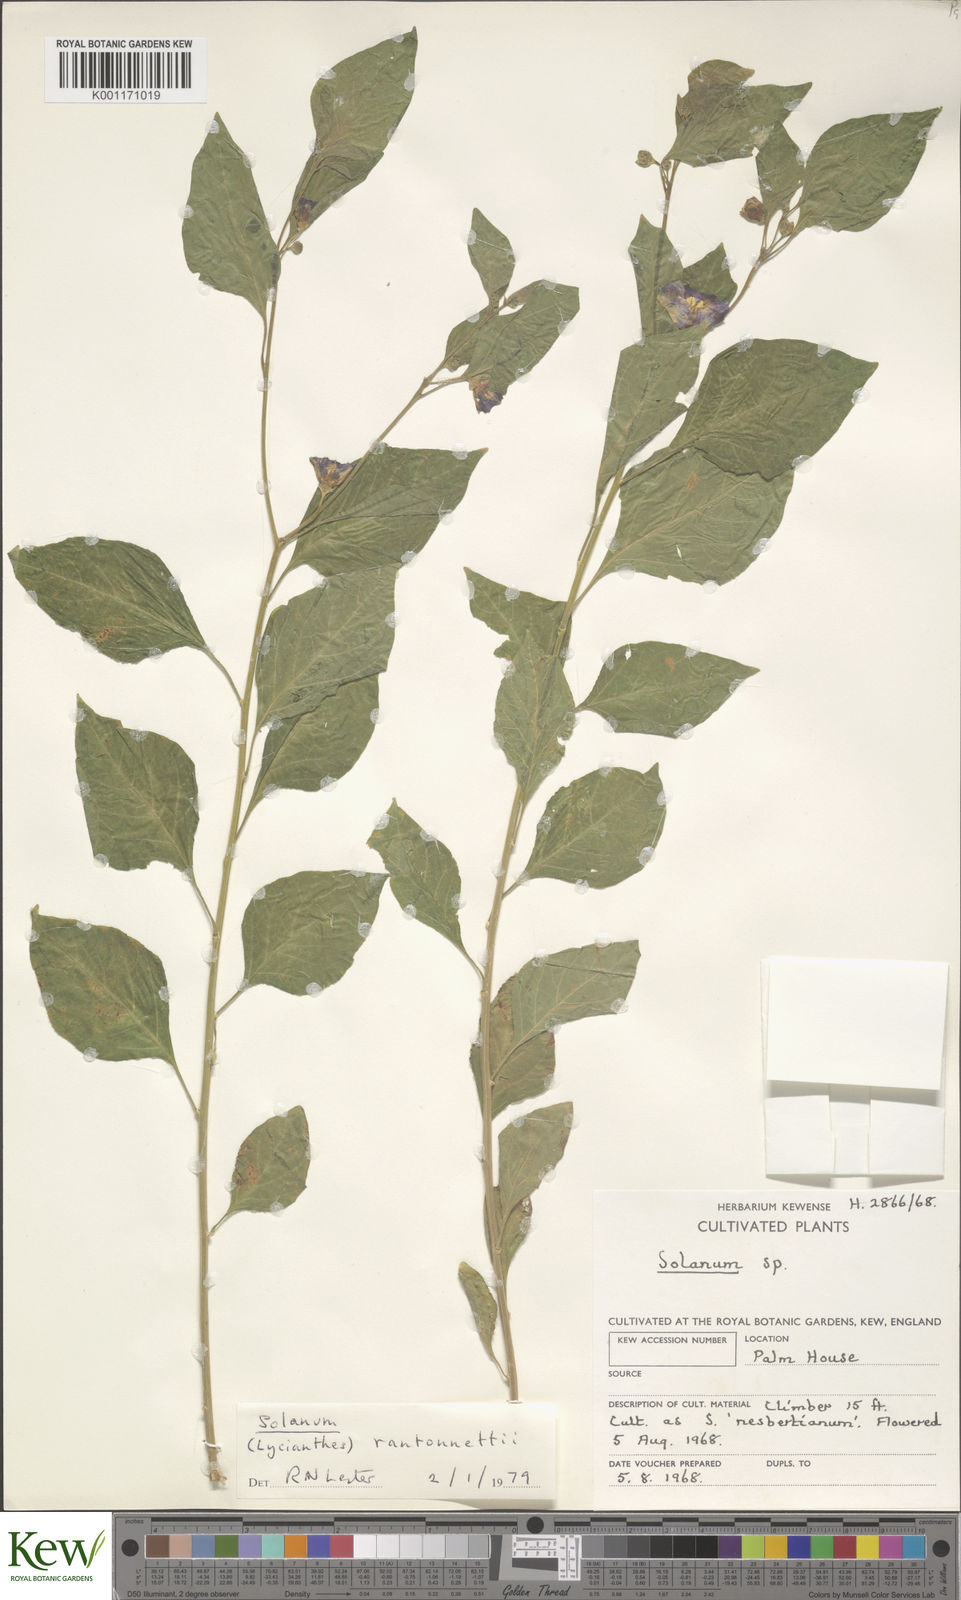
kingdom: Plantae
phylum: Tracheophyta
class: Magnoliopsida
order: Solanales
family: Solanaceae
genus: Solanum
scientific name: Solanum
